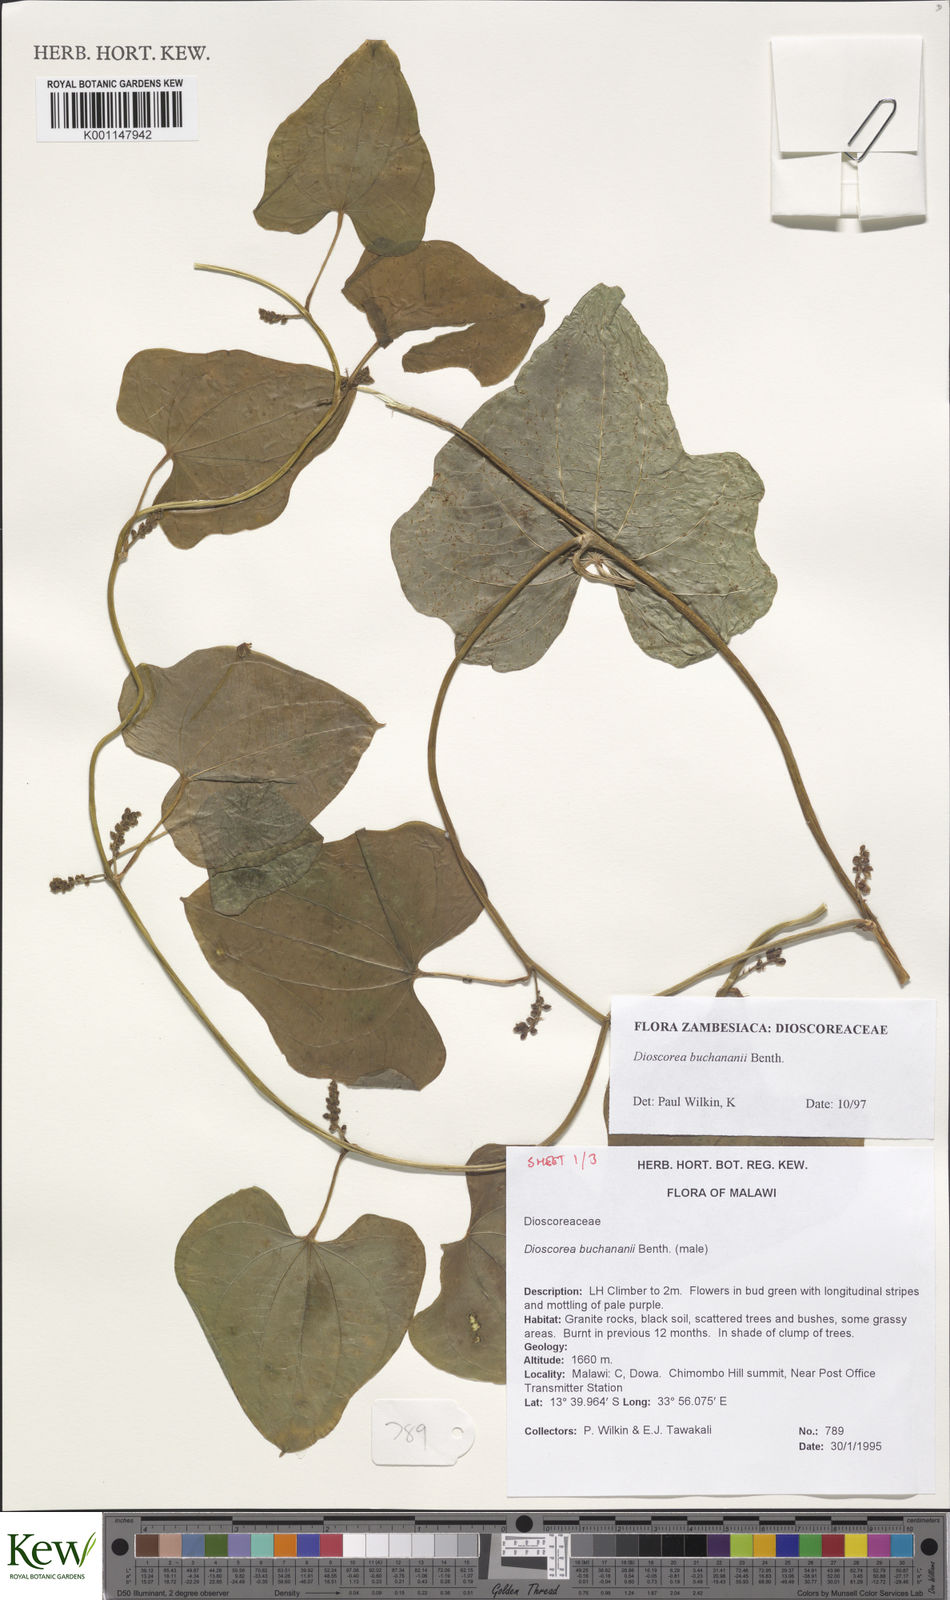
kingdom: Plantae
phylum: Tracheophyta
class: Liliopsida
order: Dioscoreales
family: Dioscoreaceae
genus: Dioscorea
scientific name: Dioscorea buchananii
